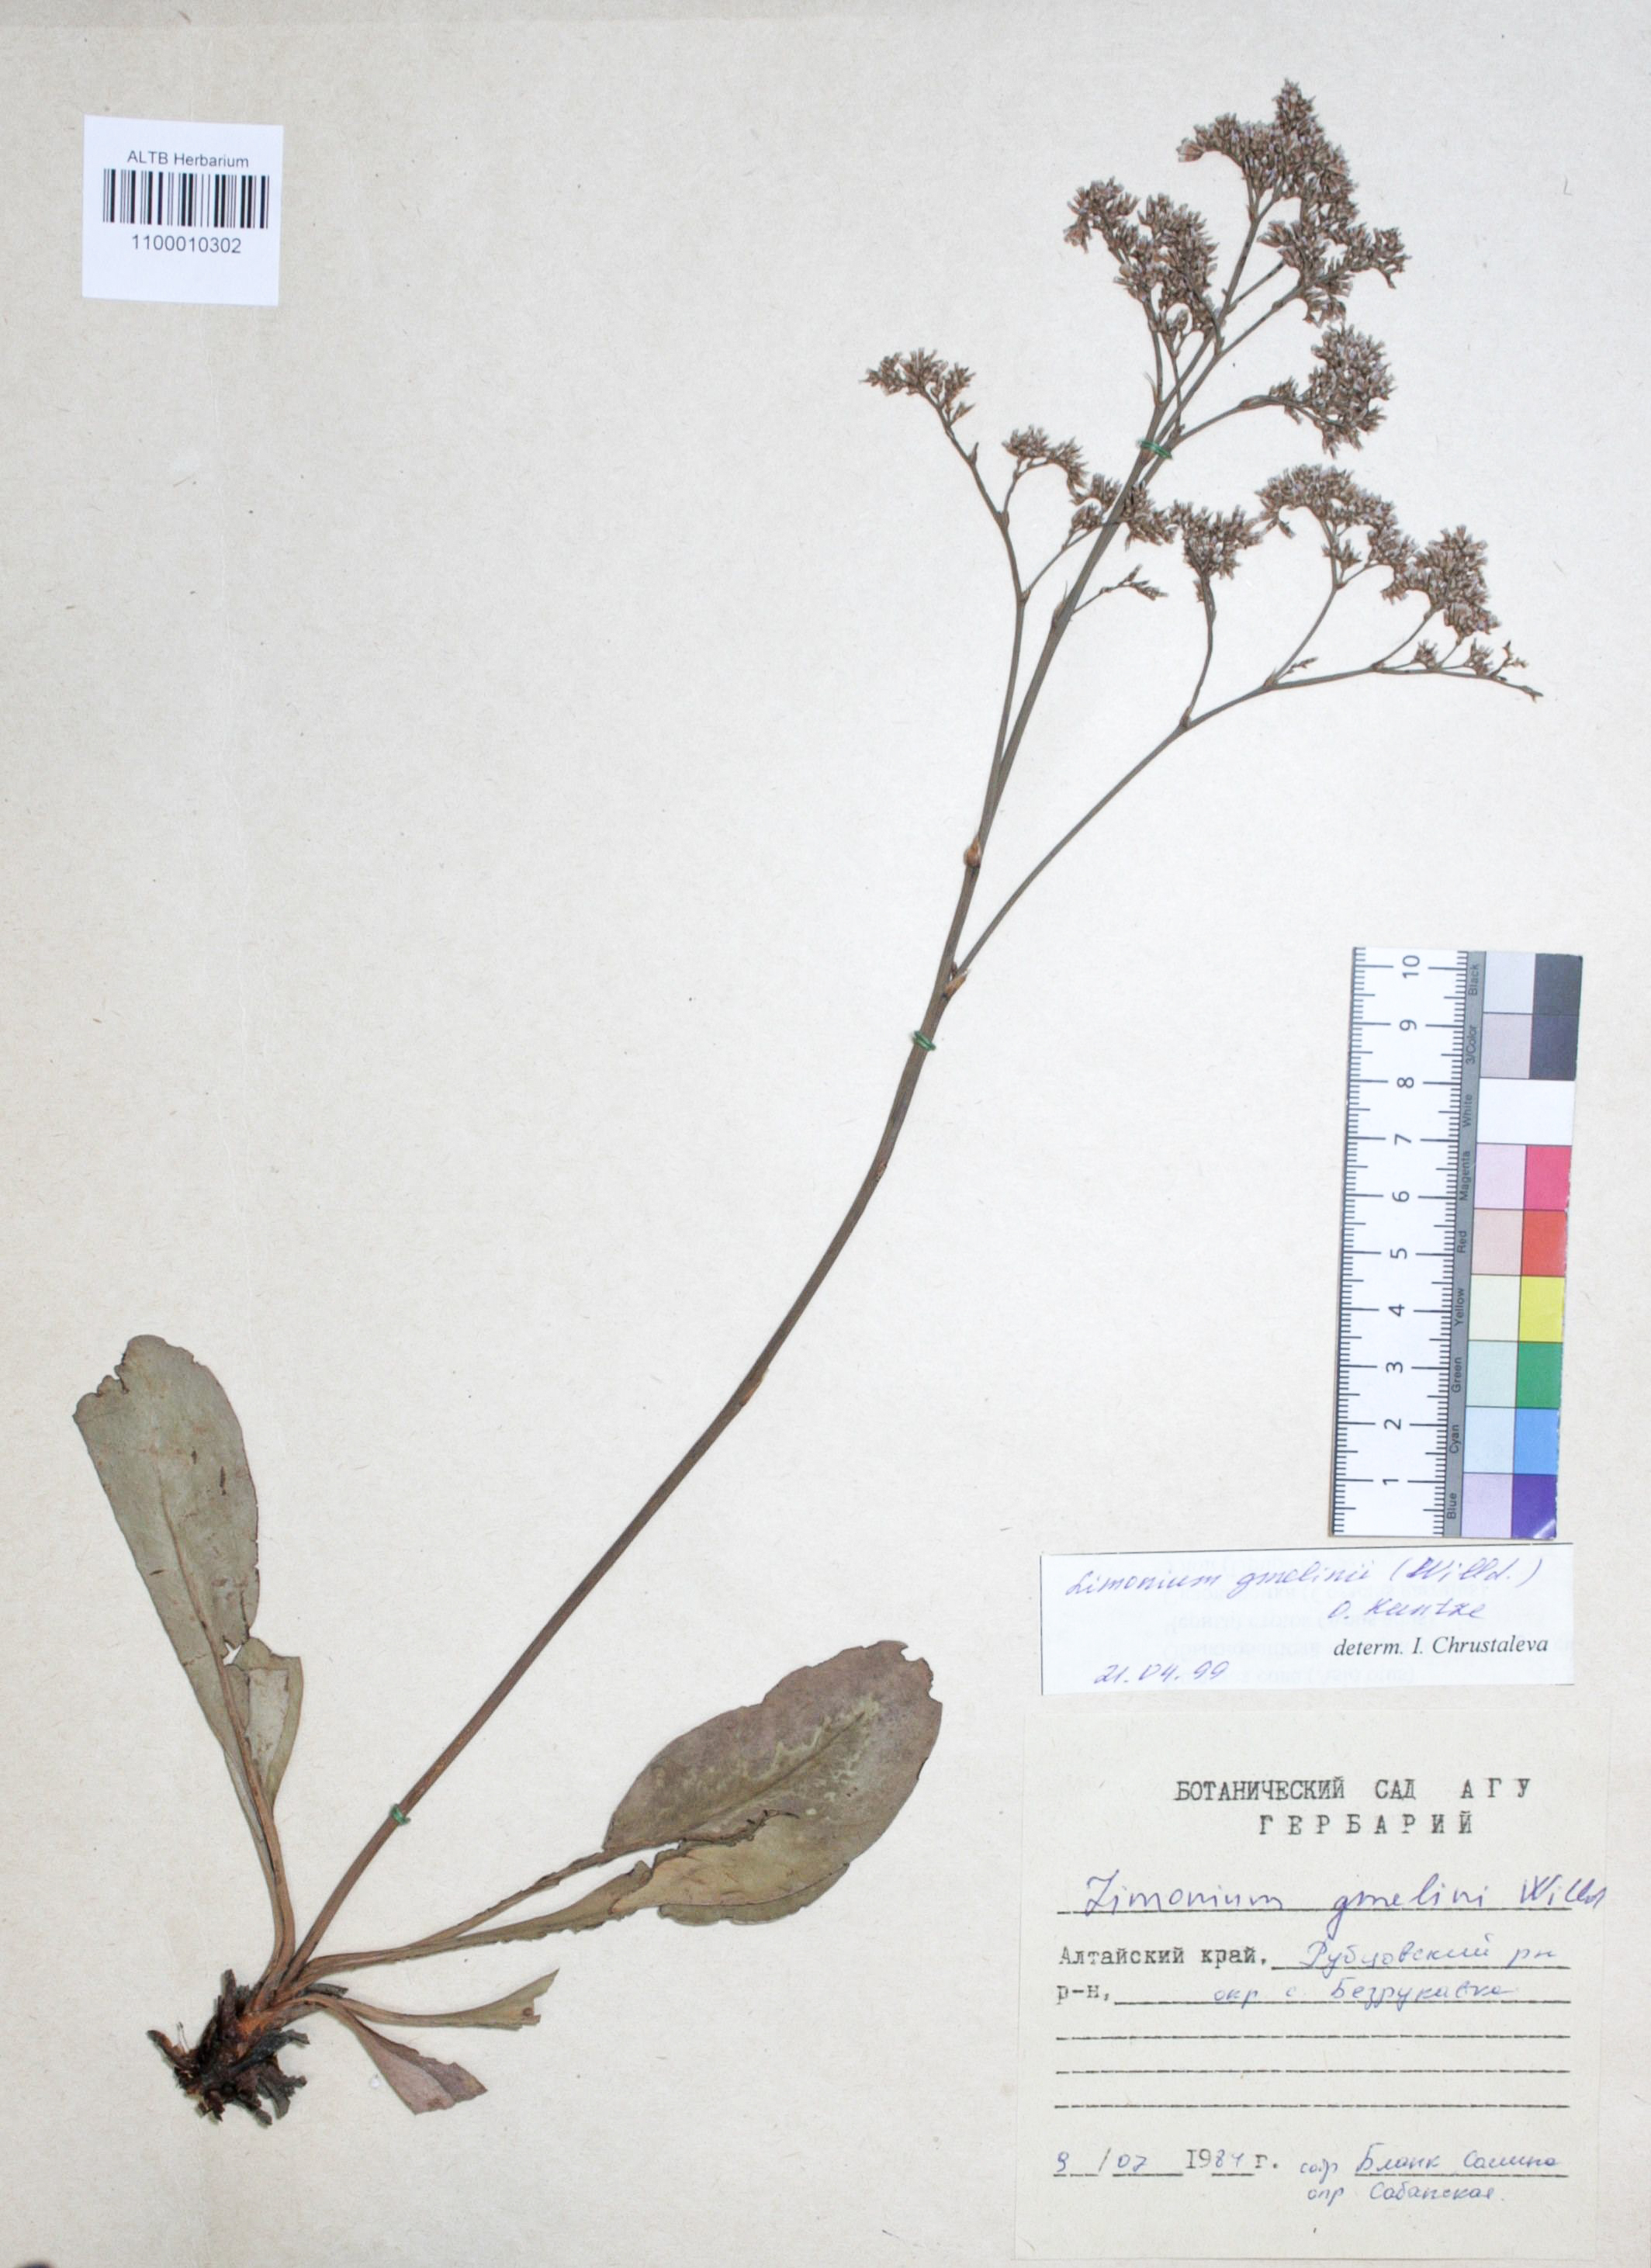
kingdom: Plantae
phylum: Tracheophyta
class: Magnoliopsida
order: Caryophyllales
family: Plumbaginaceae
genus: Limonium
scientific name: Limonium gmelini
